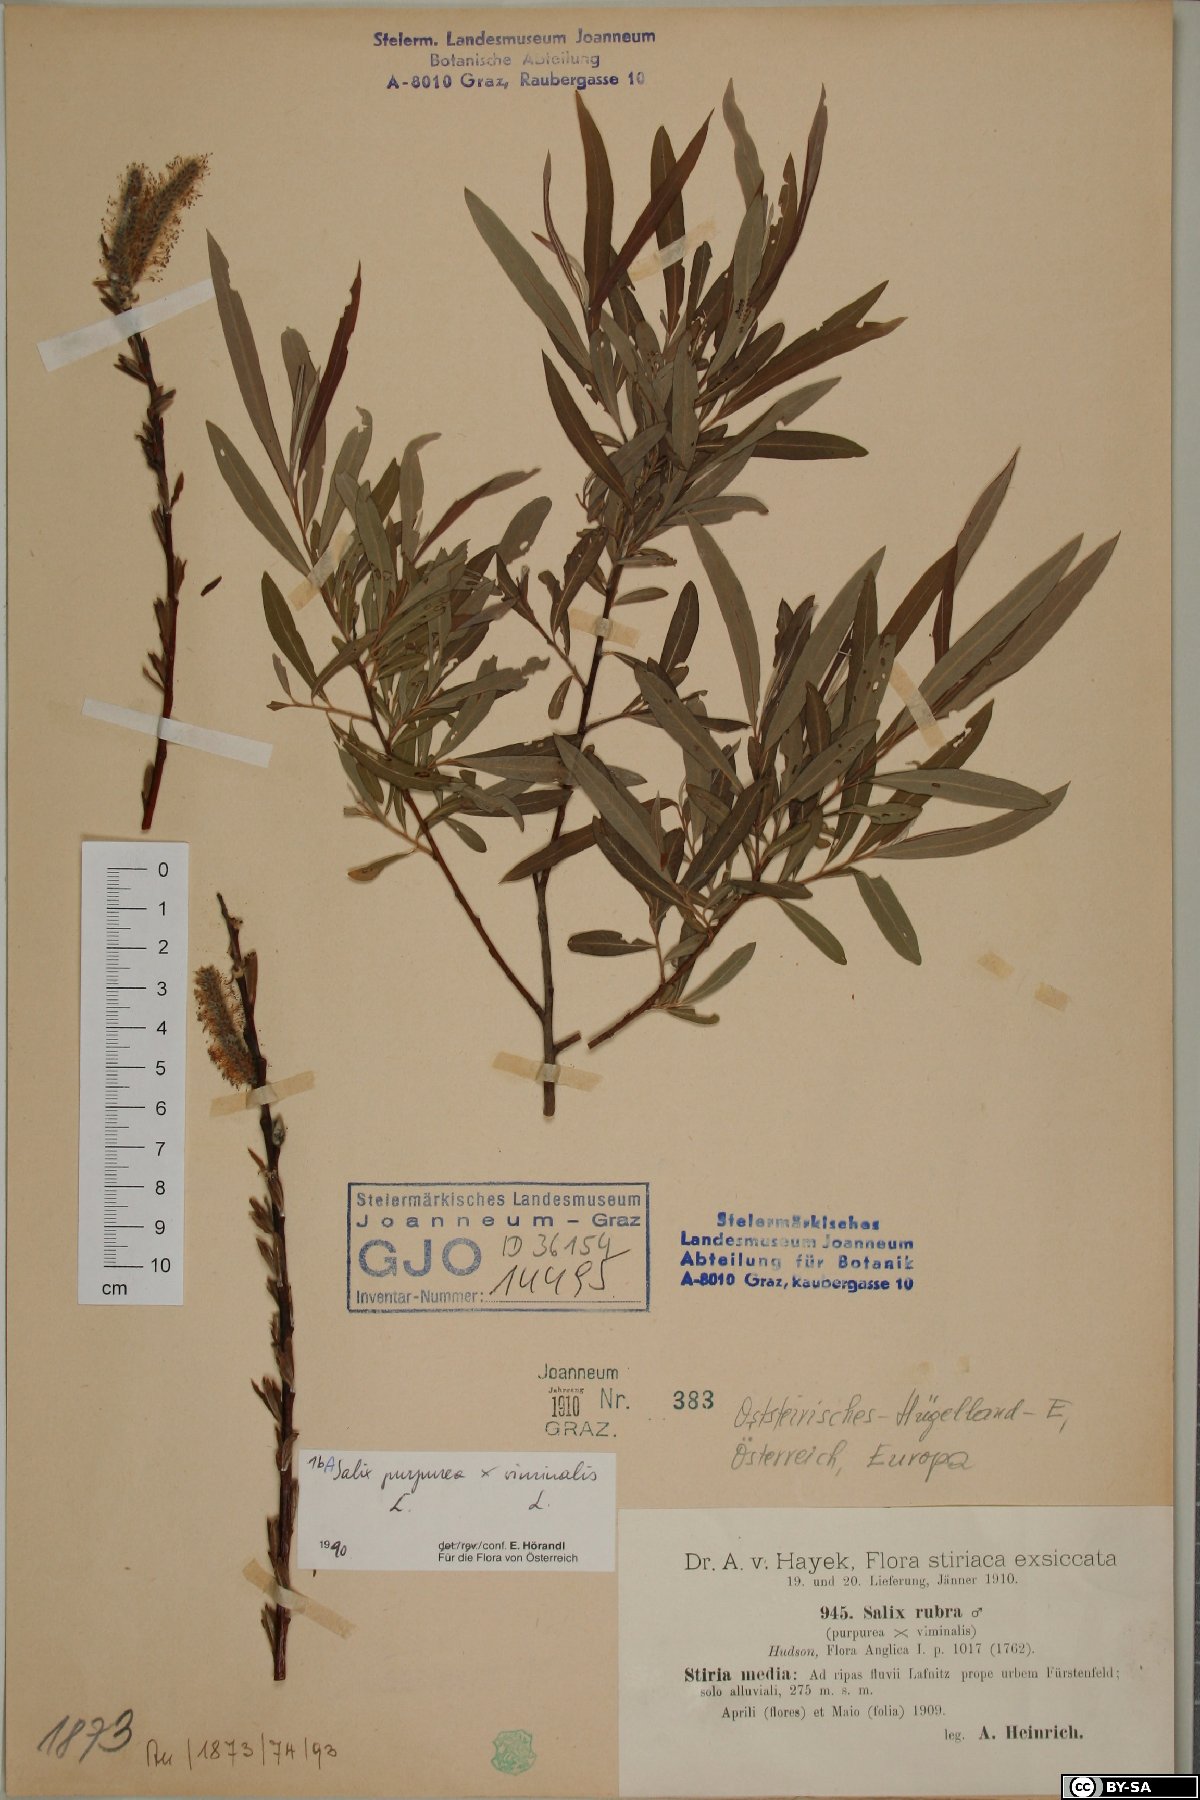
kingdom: Plantae
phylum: Tracheophyta
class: Magnoliopsida
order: Malpighiales
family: Salicaceae
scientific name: Salicaceae
